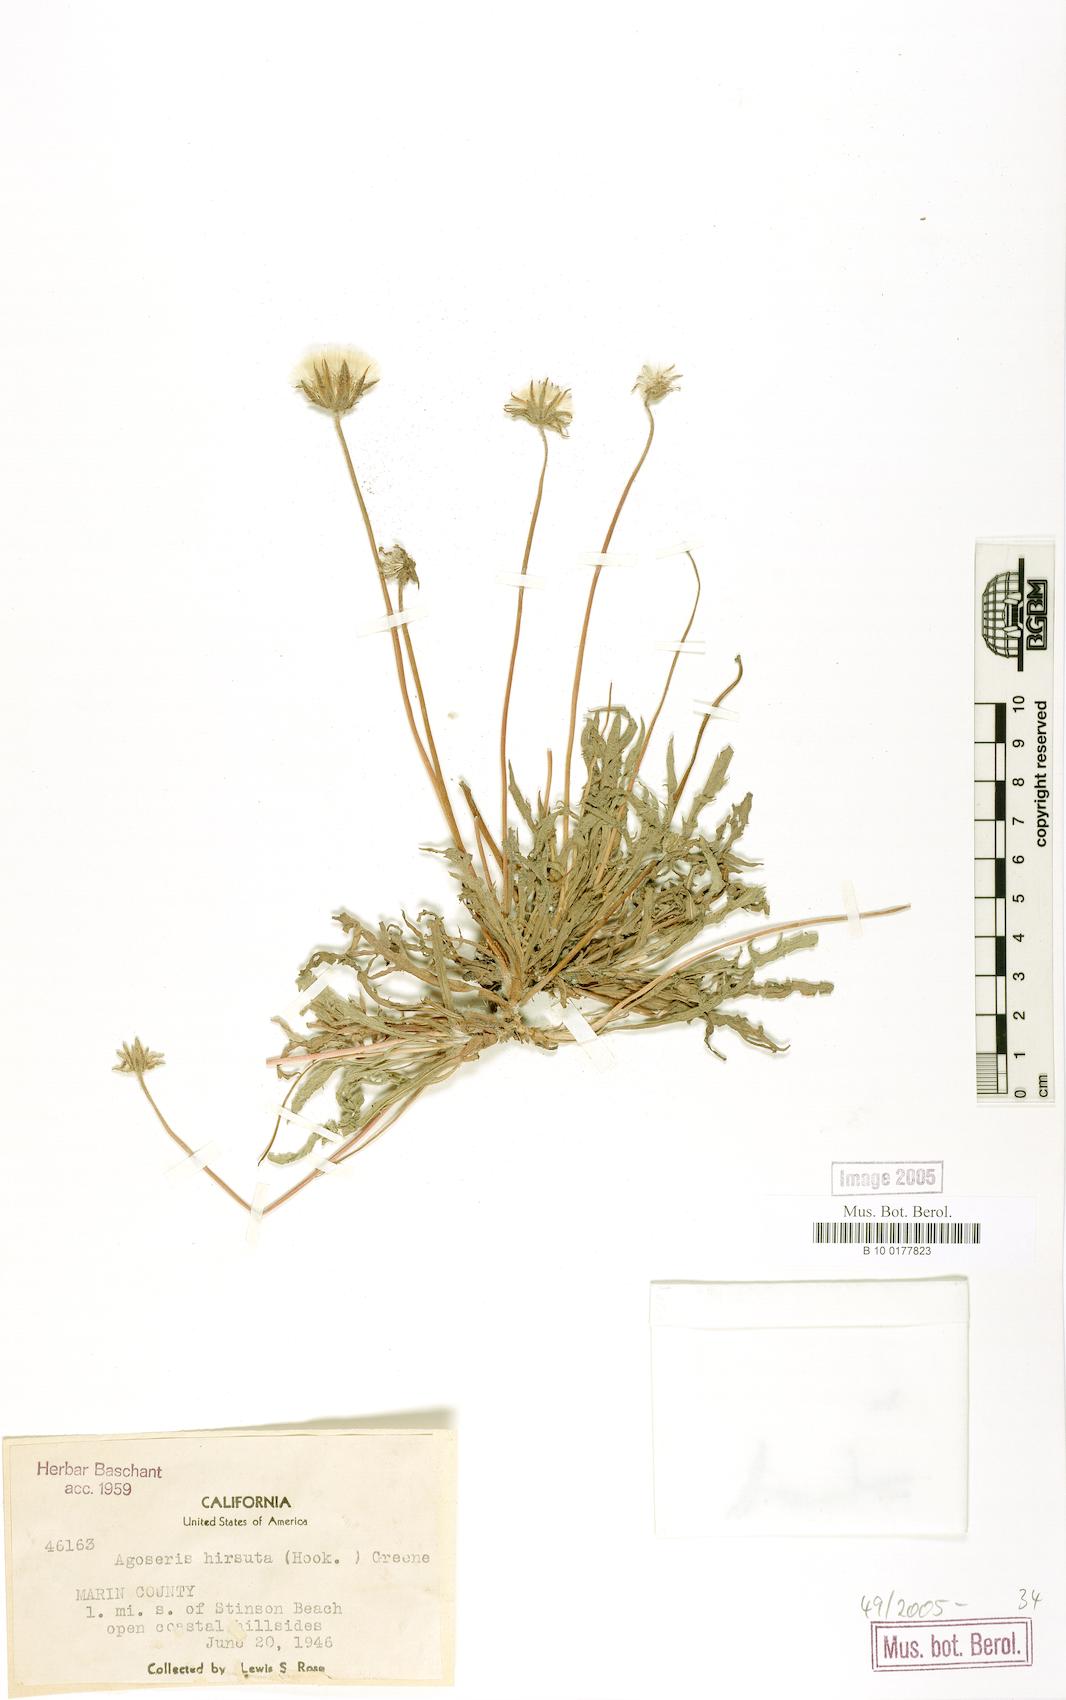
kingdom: Plantae
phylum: Tracheophyta
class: Magnoliopsida
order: Asterales
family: Asteraceae
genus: Agoseris
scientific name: Agoseris hirsuta
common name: Coast range agoseris
